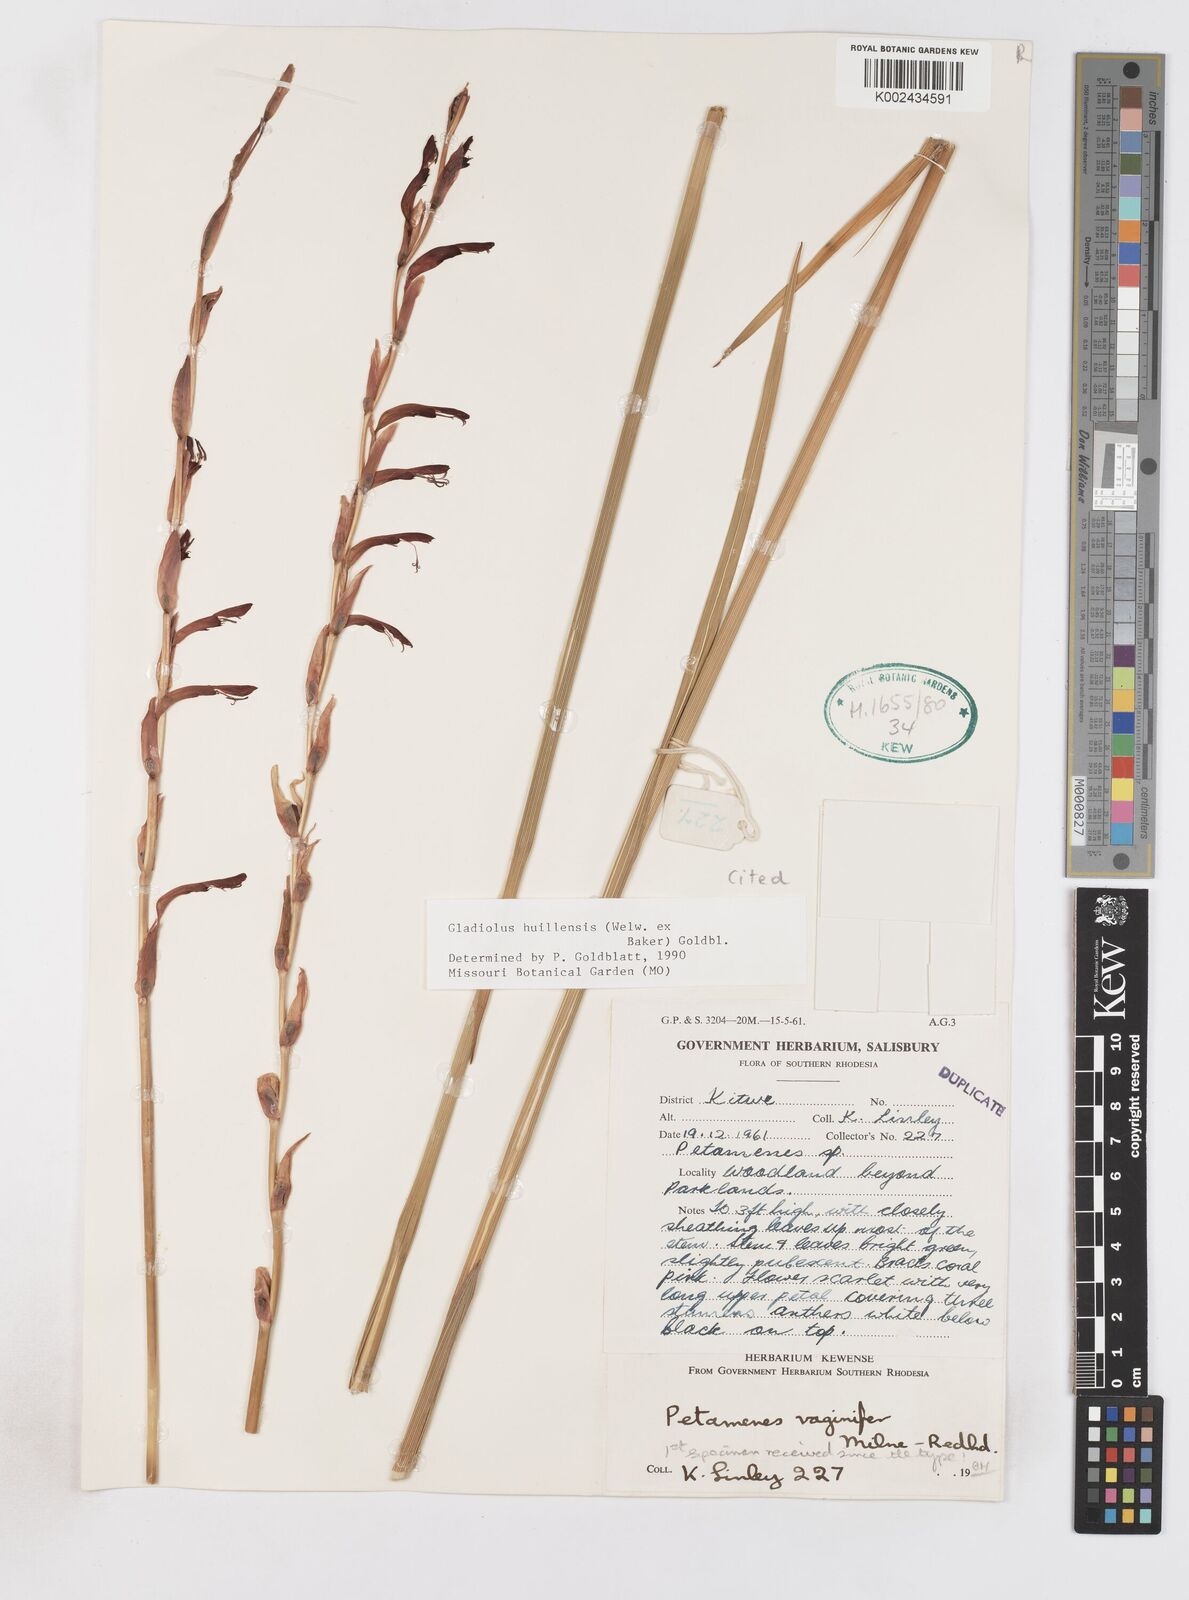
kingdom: Plantae
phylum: Tracheophyta
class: Liliopsida
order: Asparagales
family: Iridaceae
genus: Gladiolus
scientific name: Gladiolus huillensis
